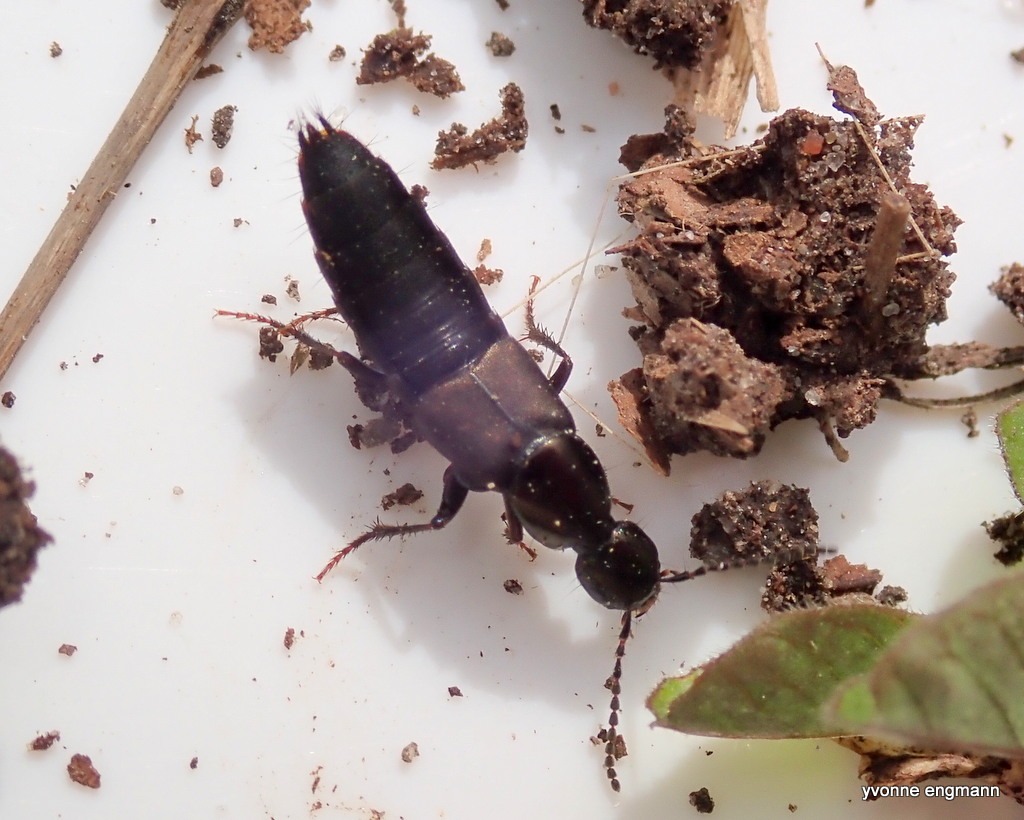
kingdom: Animalia
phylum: Arthropoda
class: Insecta
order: Coleoptera
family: Staphylinidae
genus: Philonthus
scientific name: Philonthus decorus
